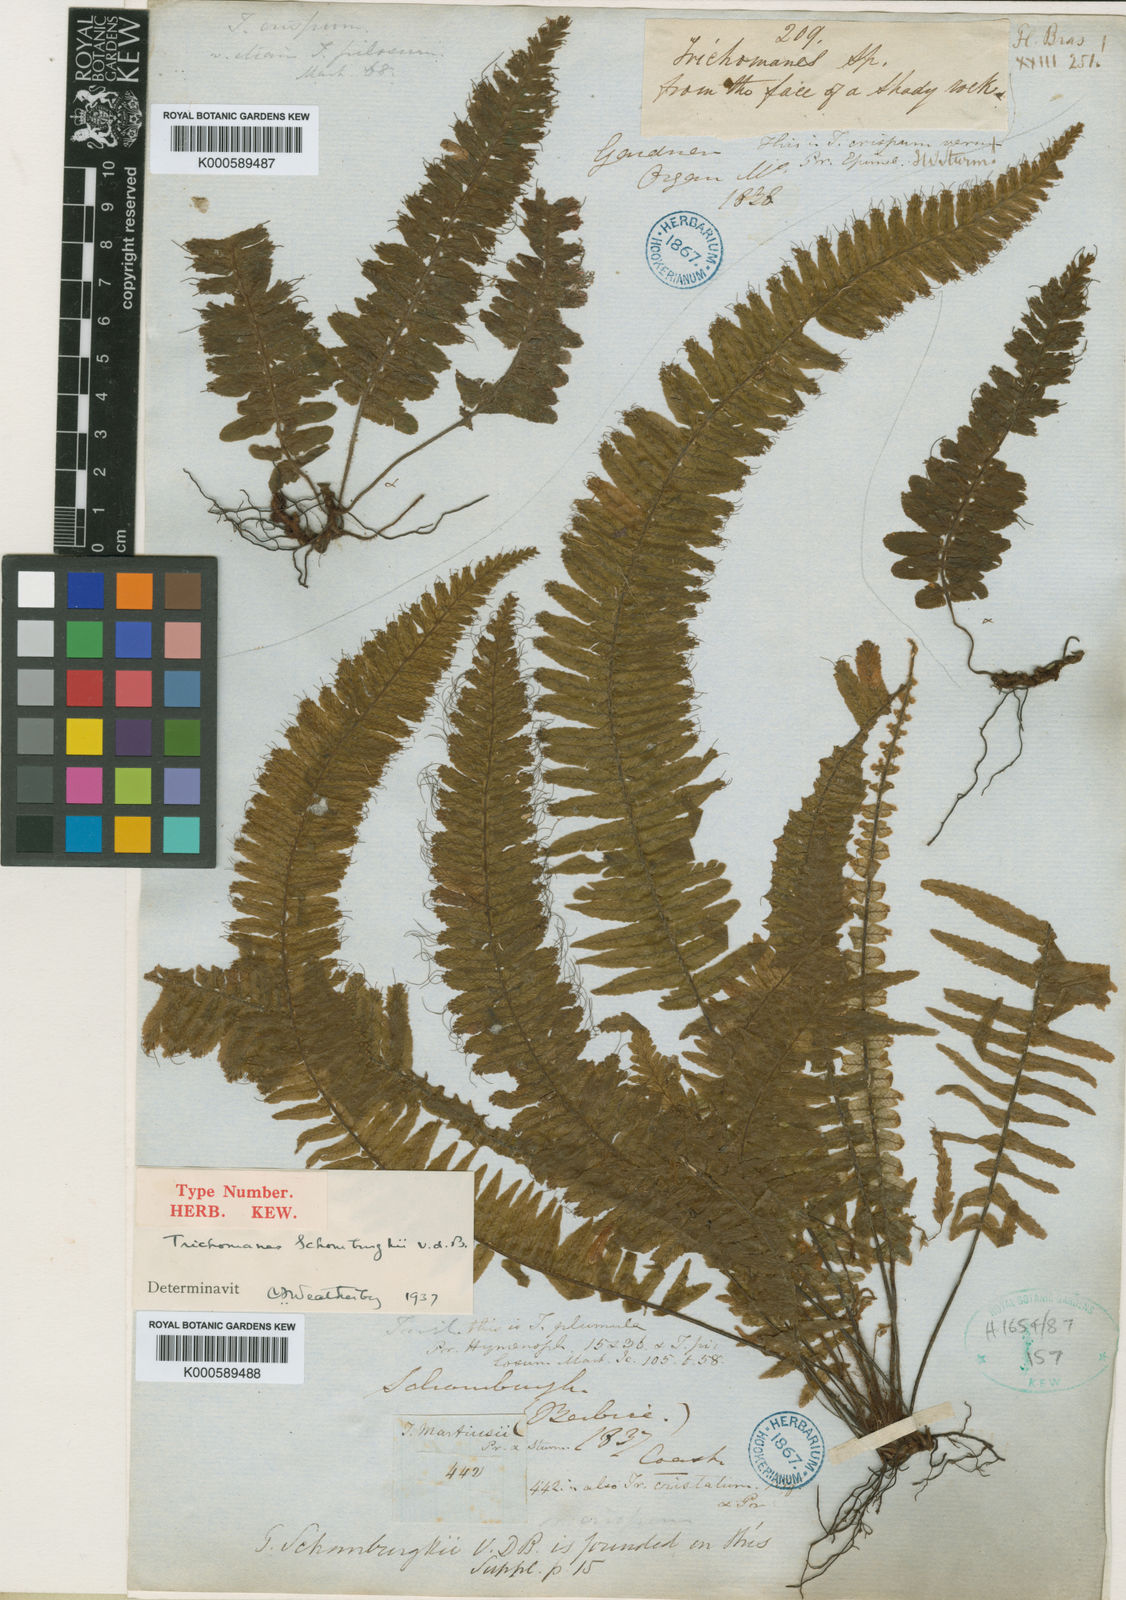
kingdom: Plantae
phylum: Tracheophyta
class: Polypodiopsida
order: Hymenophyllales
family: Hymenophyllaceae
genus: Trichomanes
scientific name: Trichomanes crispum
